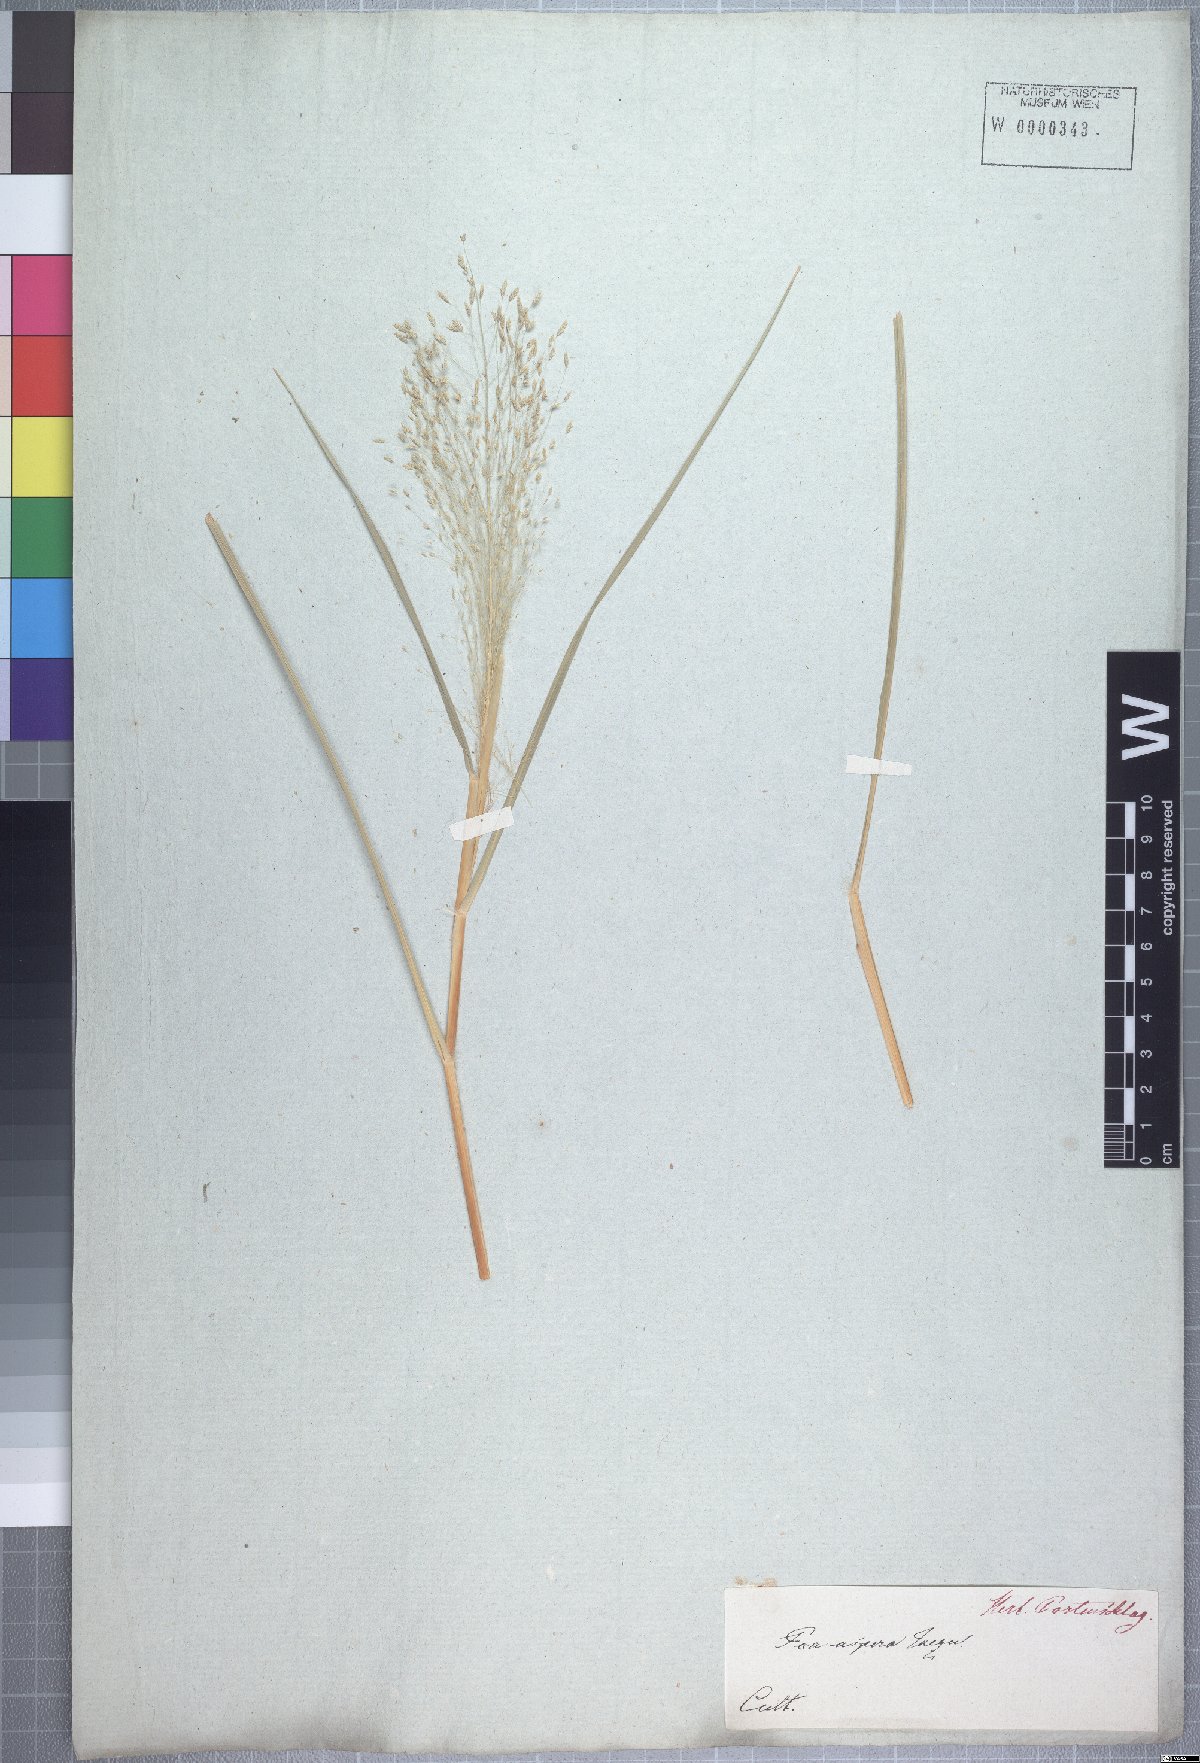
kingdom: Plantae
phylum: Tracheophyta
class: Liliopsida
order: Poales
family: Poaceae
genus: Eragrostis
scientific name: Eragrostis aspera
